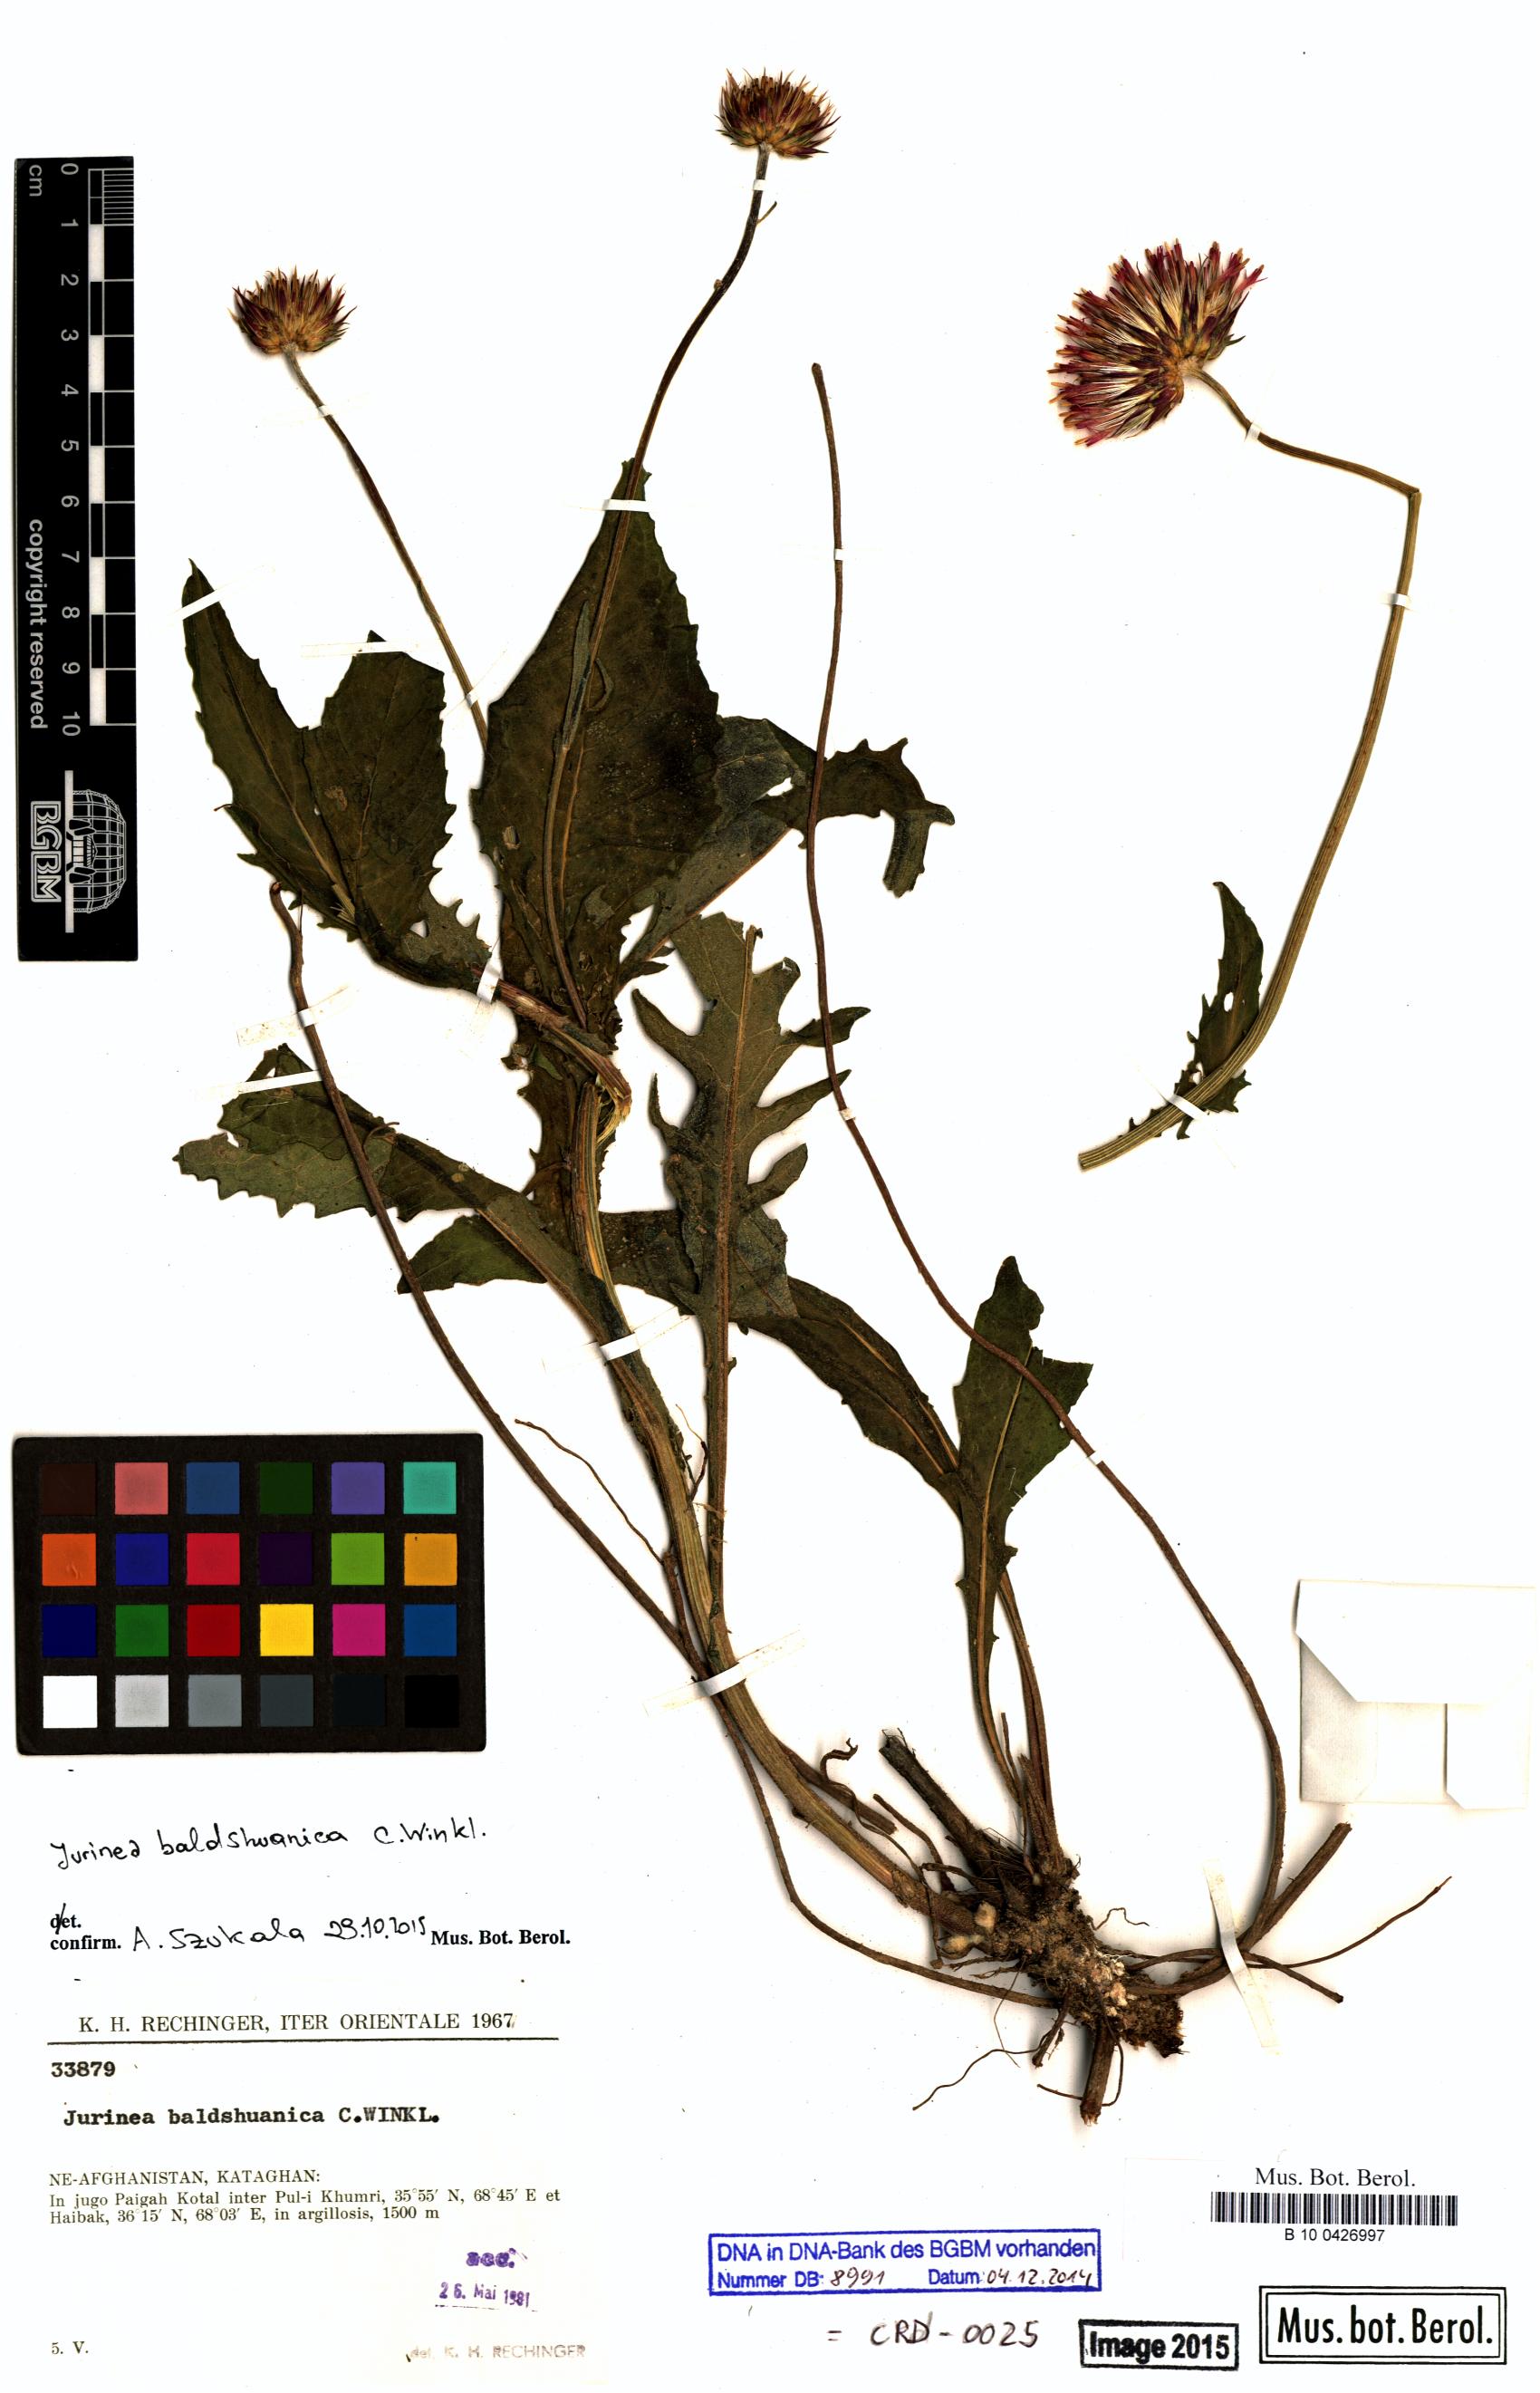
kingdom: Plantae
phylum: Tracheophyta
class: Magnoliopsida
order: Asterales
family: Asteraceae
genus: Jurinea
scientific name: Jurinea baldschuanica
